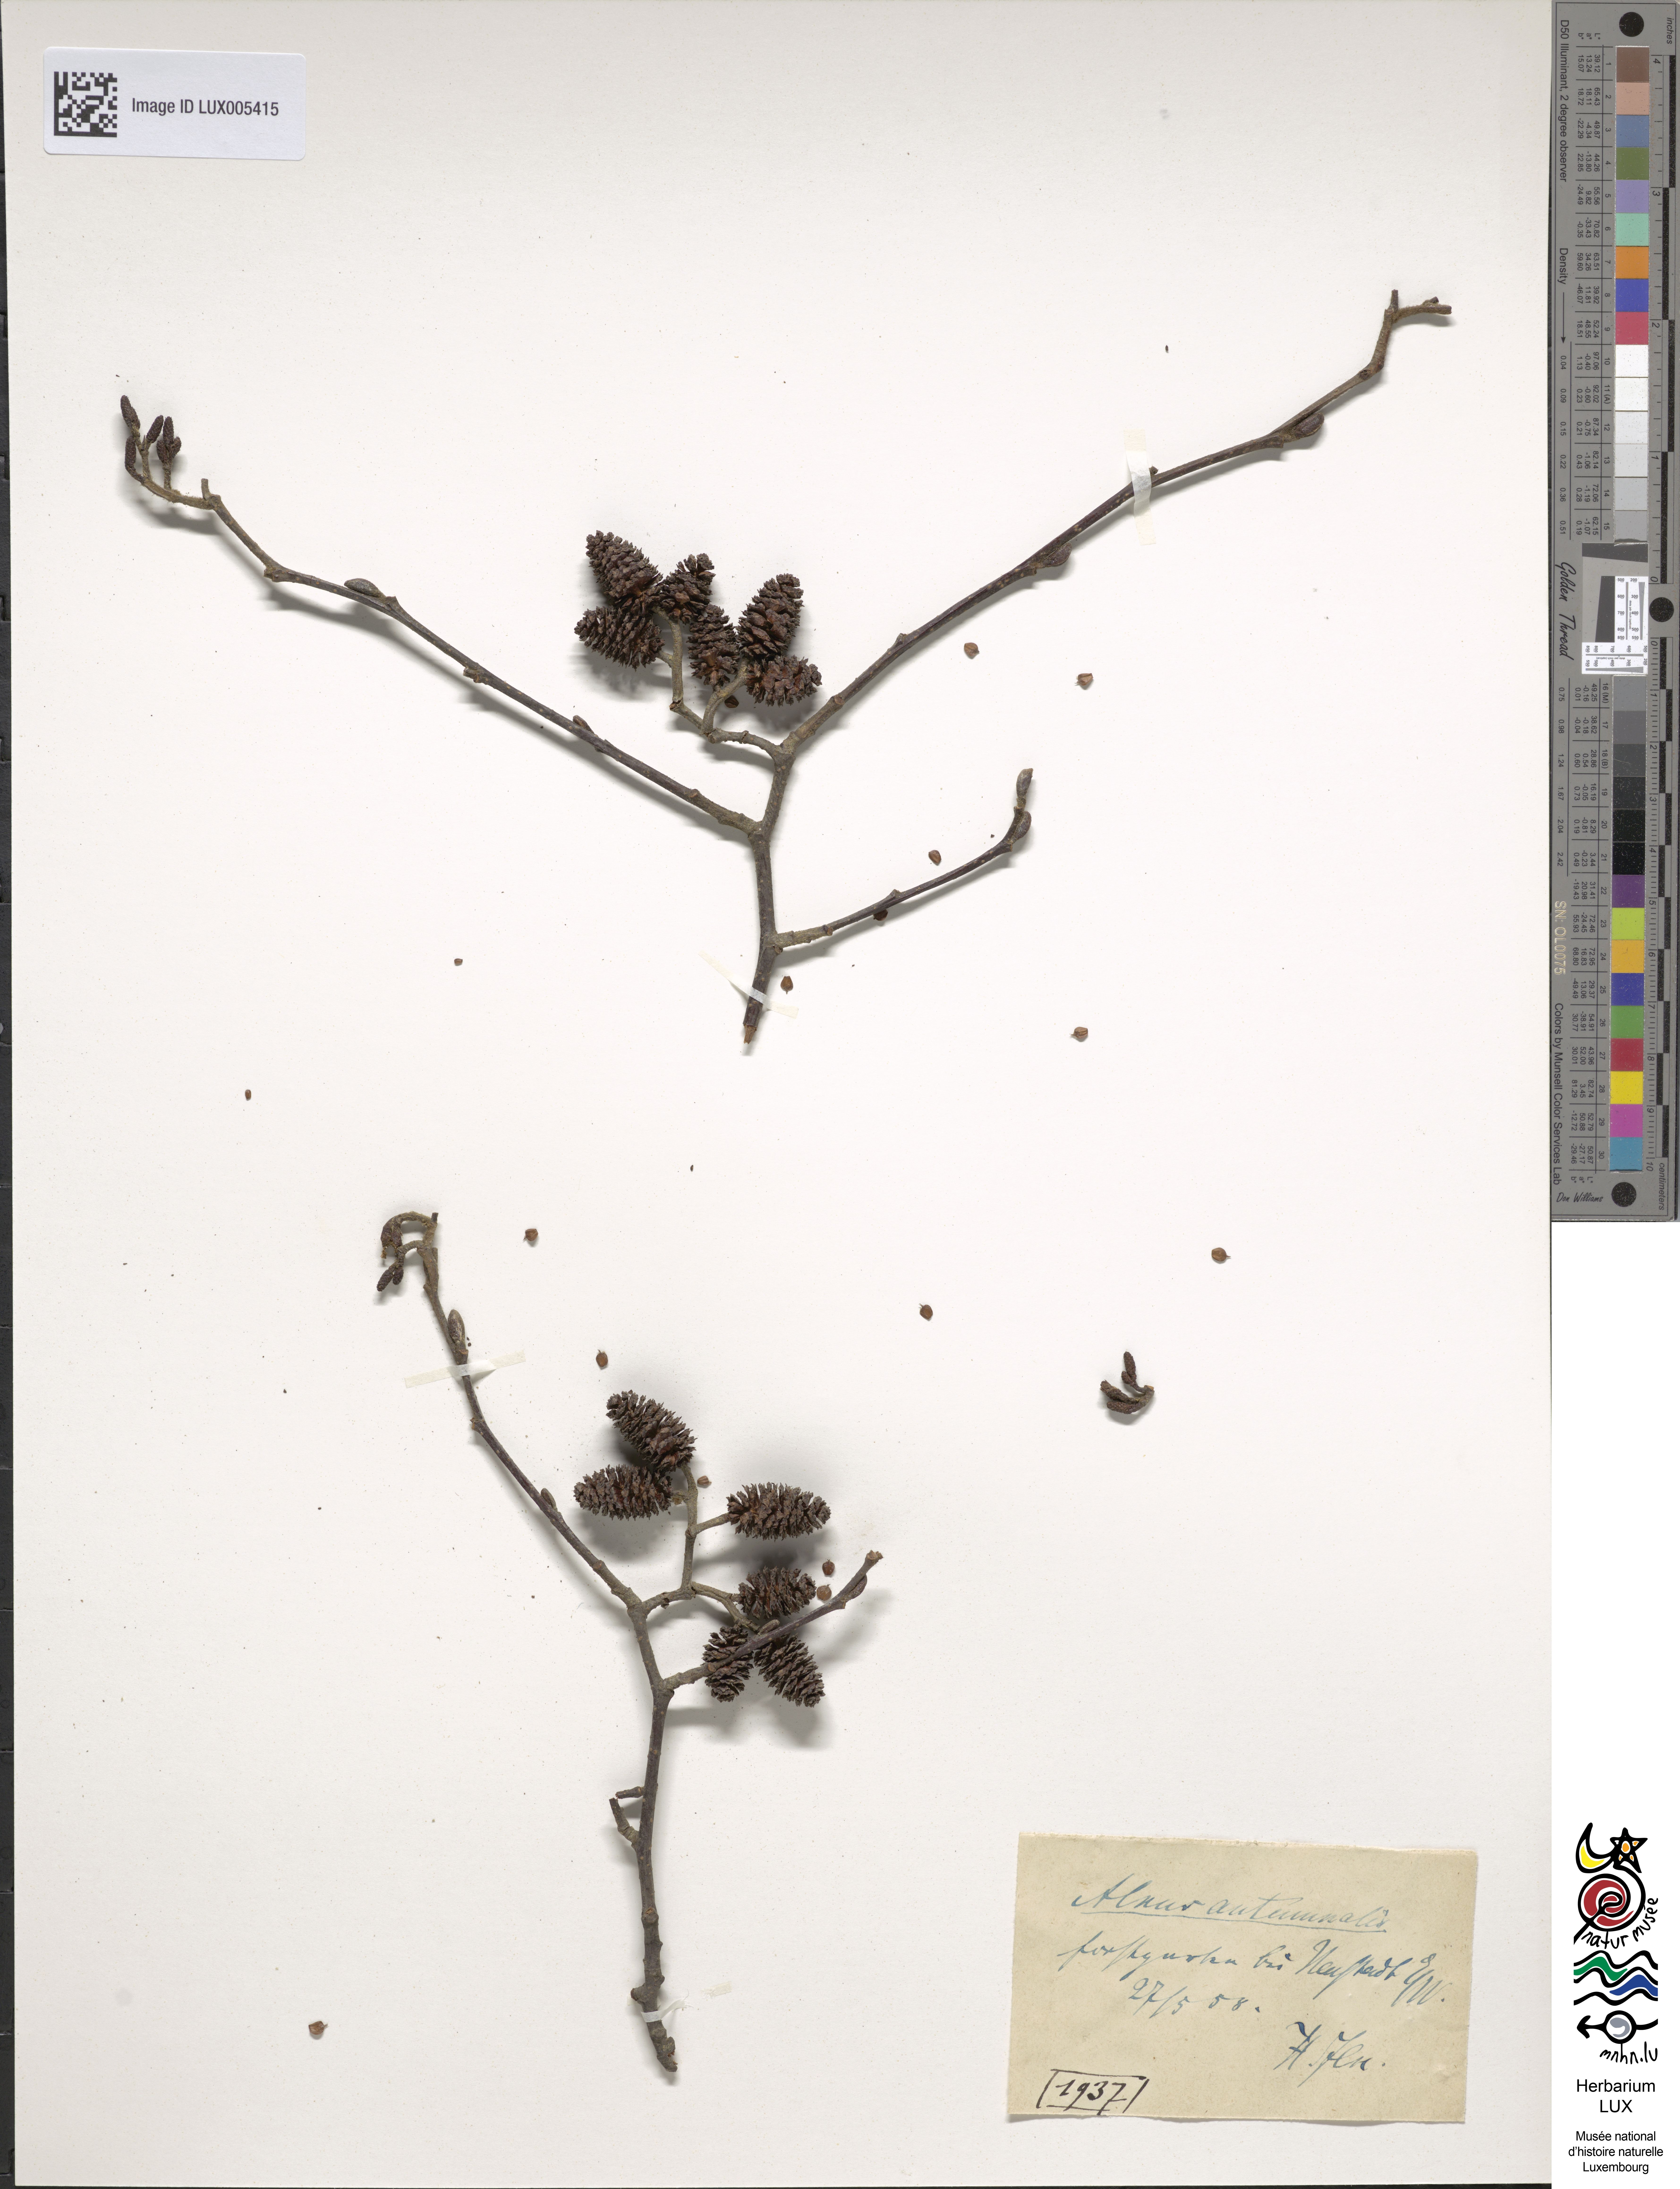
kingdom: Plantae
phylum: Tracheophyta
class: Magnoliopsida
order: Fagales
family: Betulaceae
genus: Alnus
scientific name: Alnus serrulata
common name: Hazel alder
